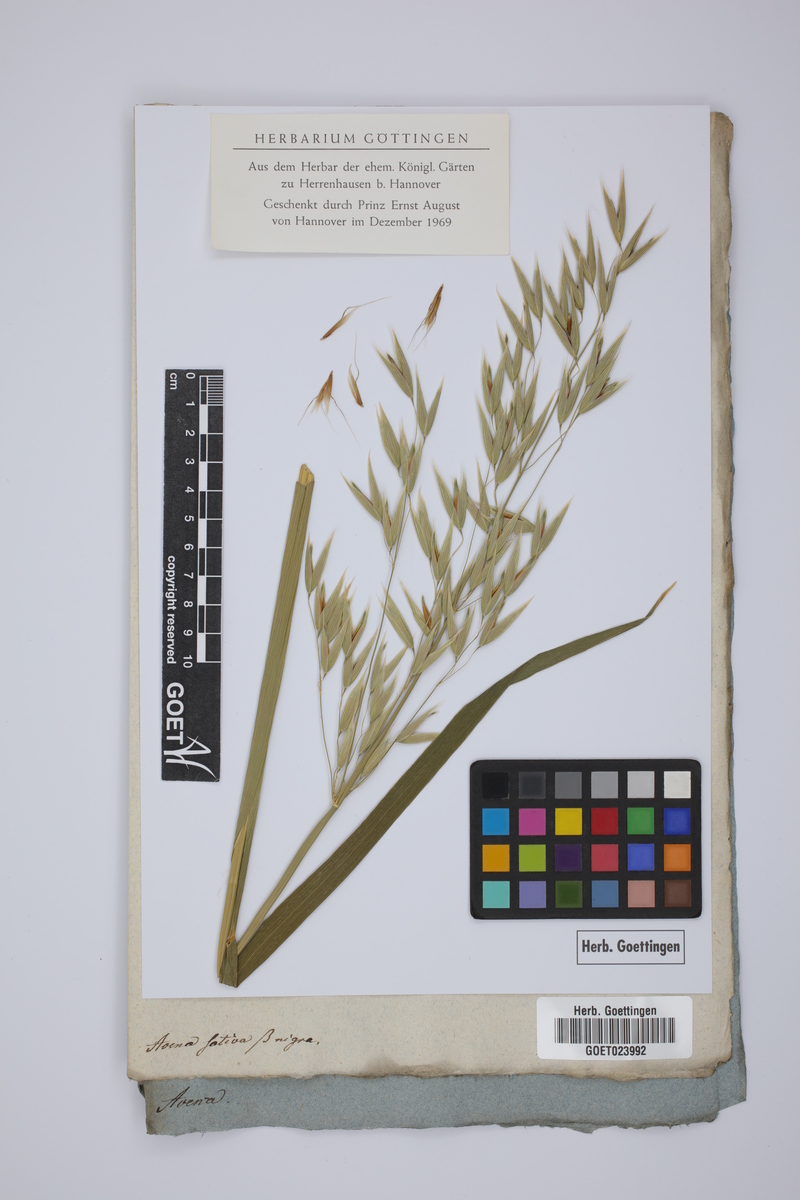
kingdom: Plantae
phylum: Tracheophyta
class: Liliopsida
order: Poales
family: Poaceae
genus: Avena
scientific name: Avena sativa
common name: Oat
